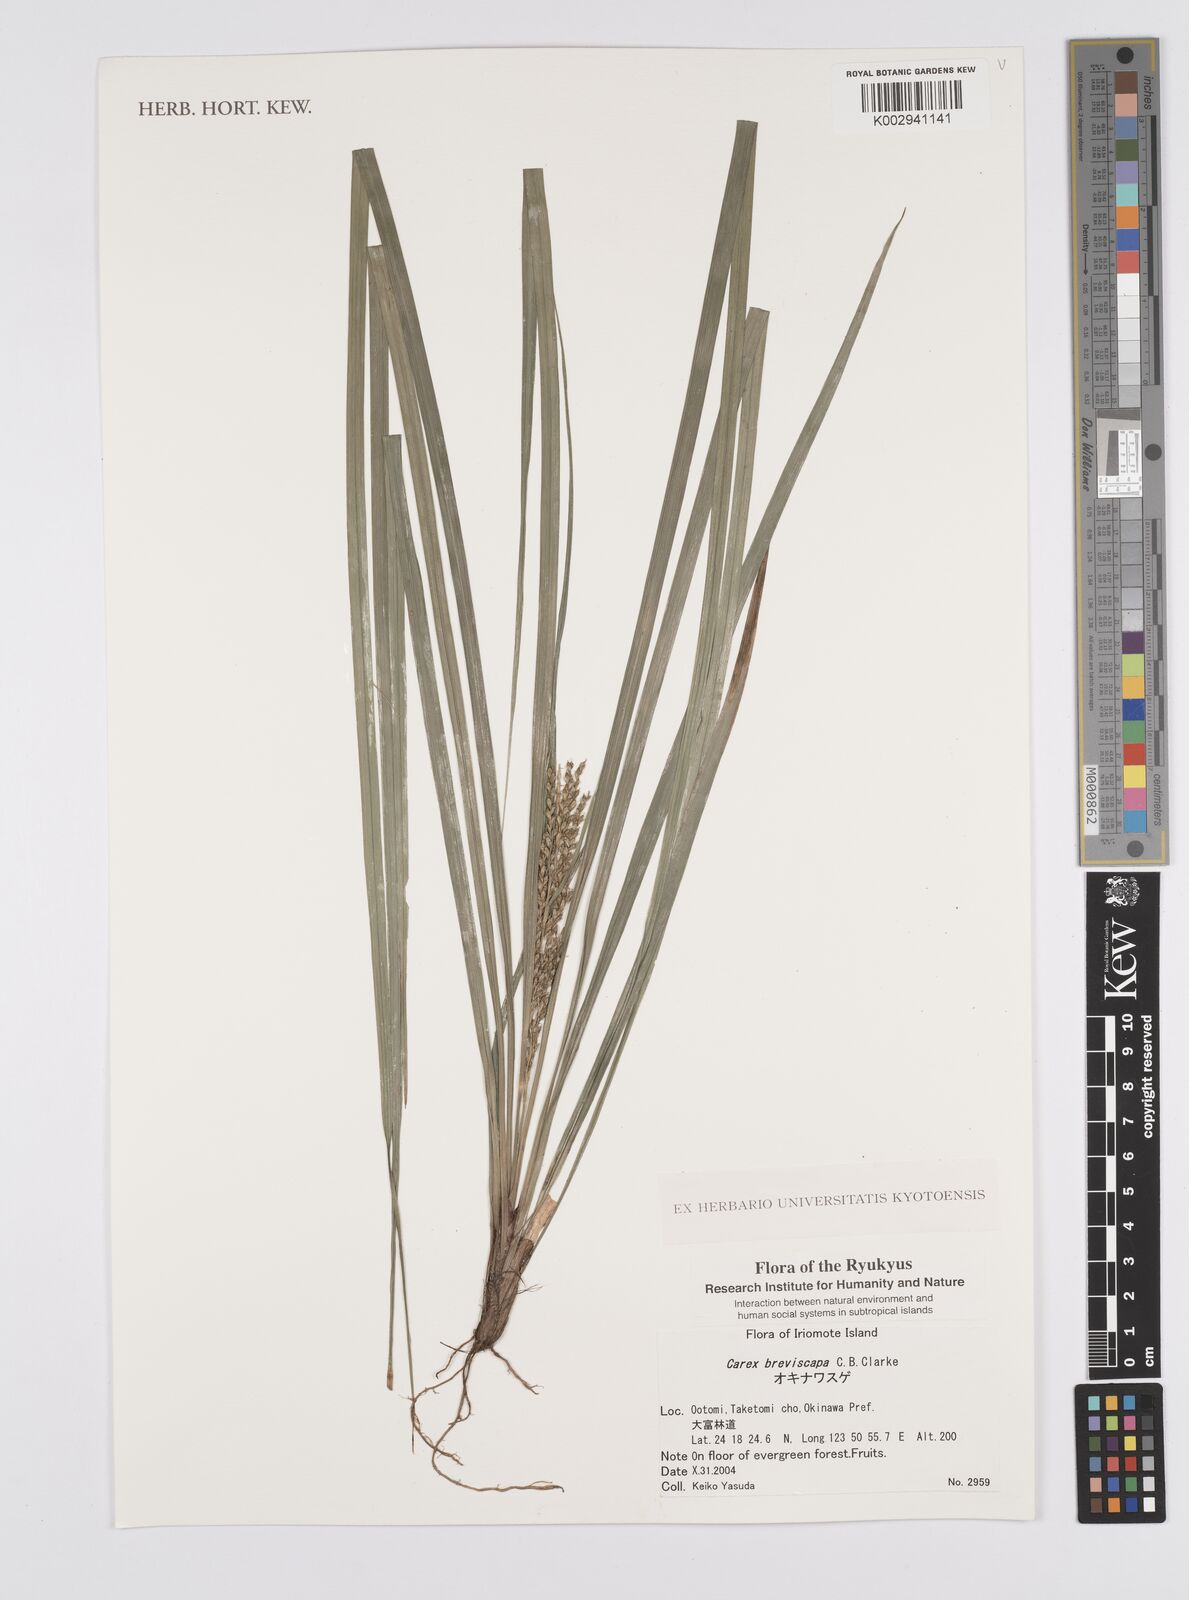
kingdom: Plantae
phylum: Tracheophyta
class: Liliopsida
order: Poales
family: Cyperaceae
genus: Carex
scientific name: Carex breviscapa
